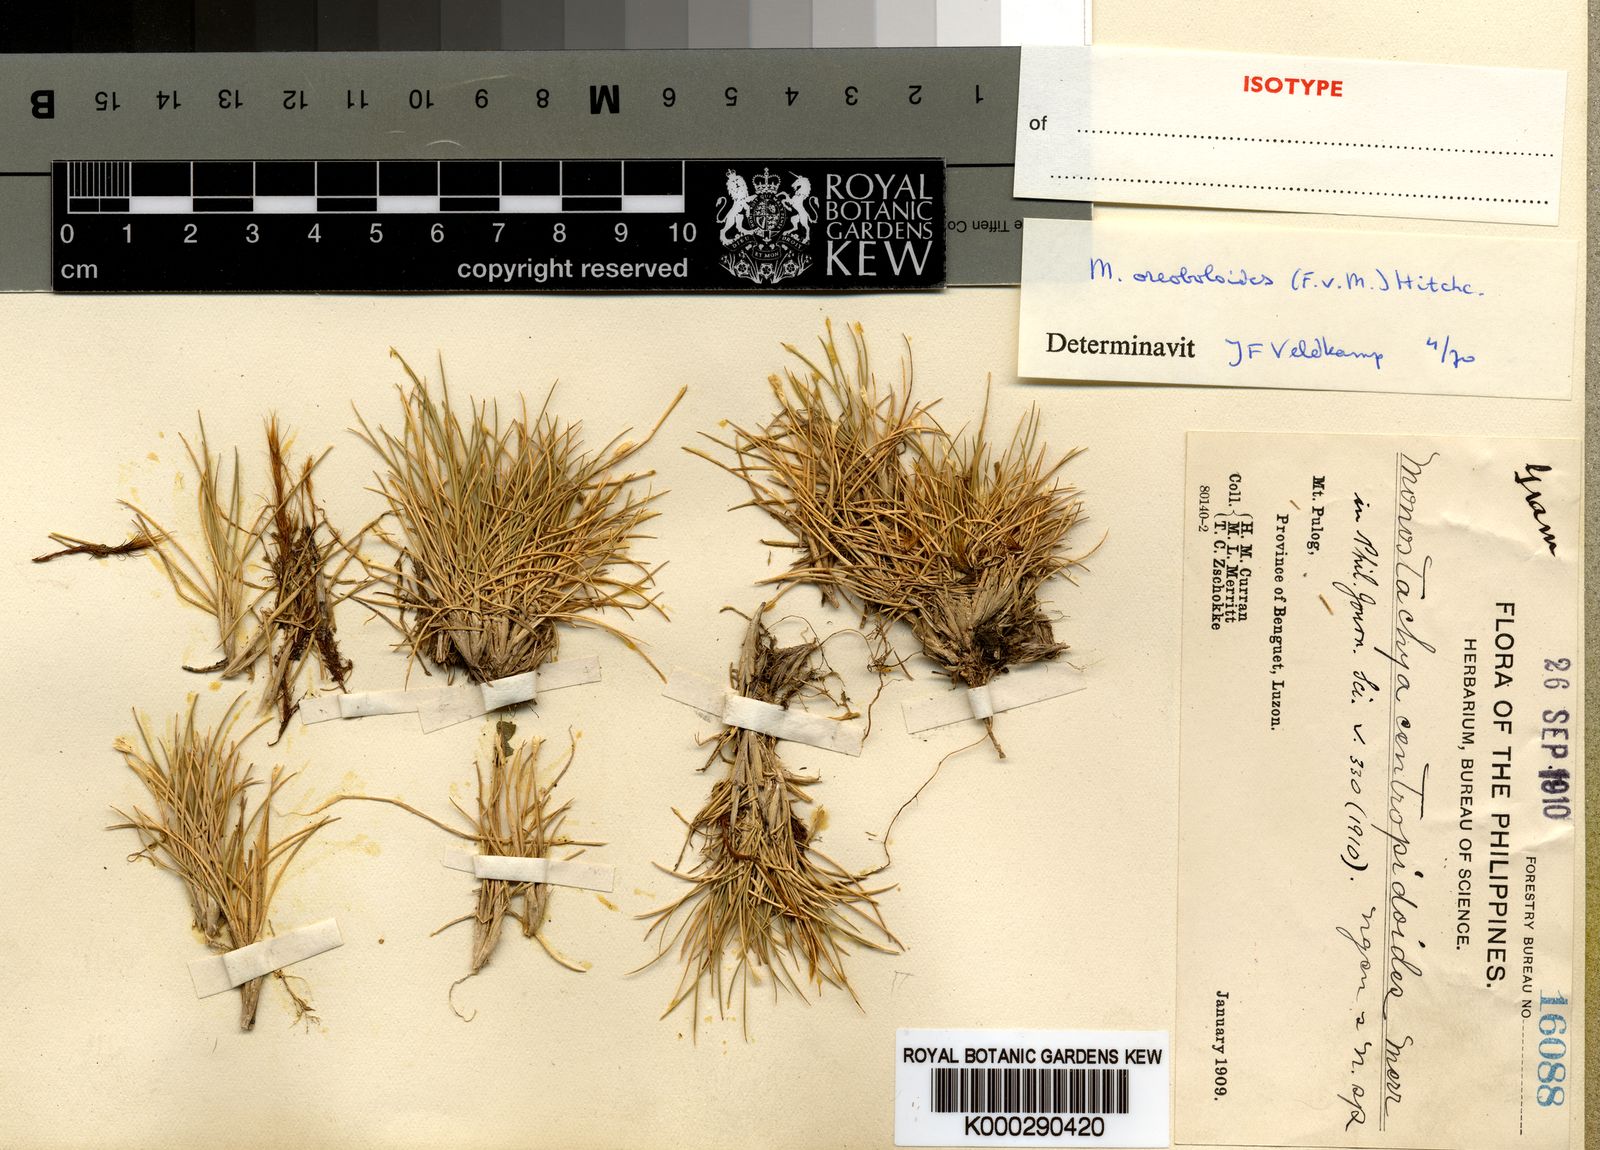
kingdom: Plantae
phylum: Tracheophyta
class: Liliopsida
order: Poales
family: Poaceae
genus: Rytidosperma
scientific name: Rytidosperma oreoboloides
